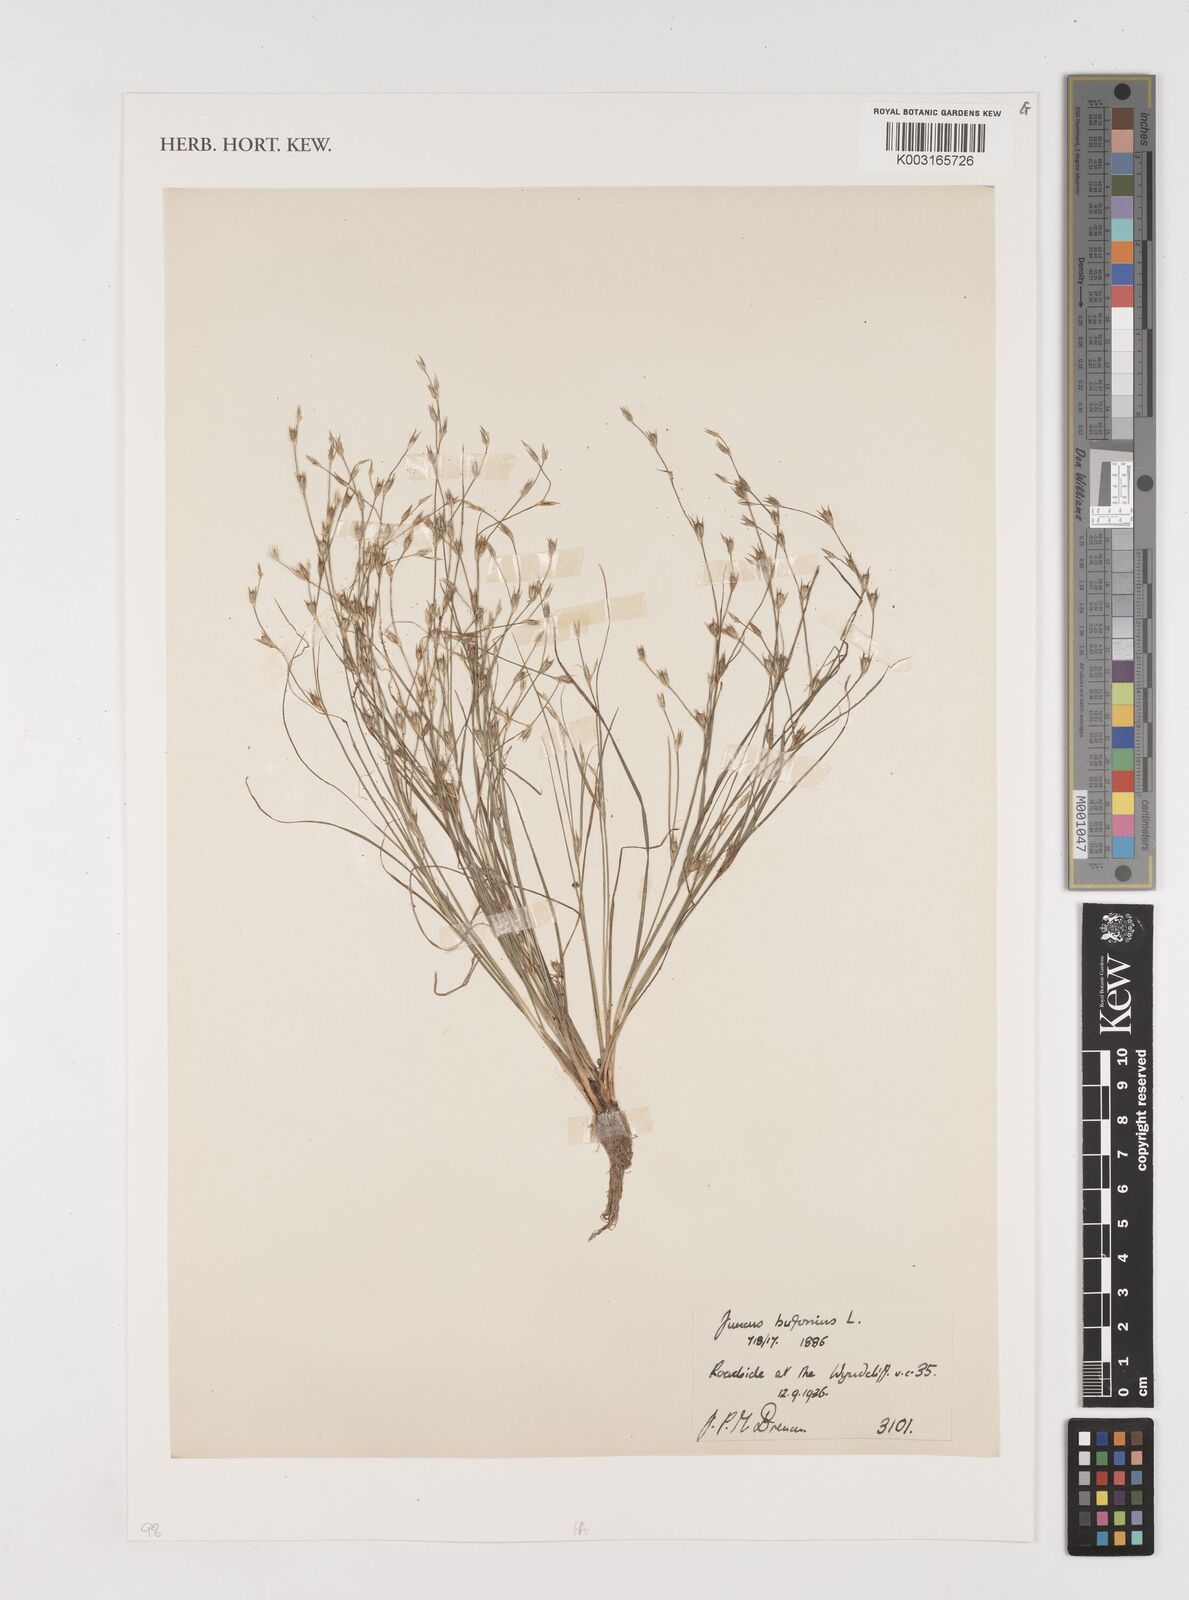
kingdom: Plantae
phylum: Tracheophyta
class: Liliopsida
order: Poales
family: Juncaceae
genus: Juncus
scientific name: Juncus bufonius
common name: Toad rush
